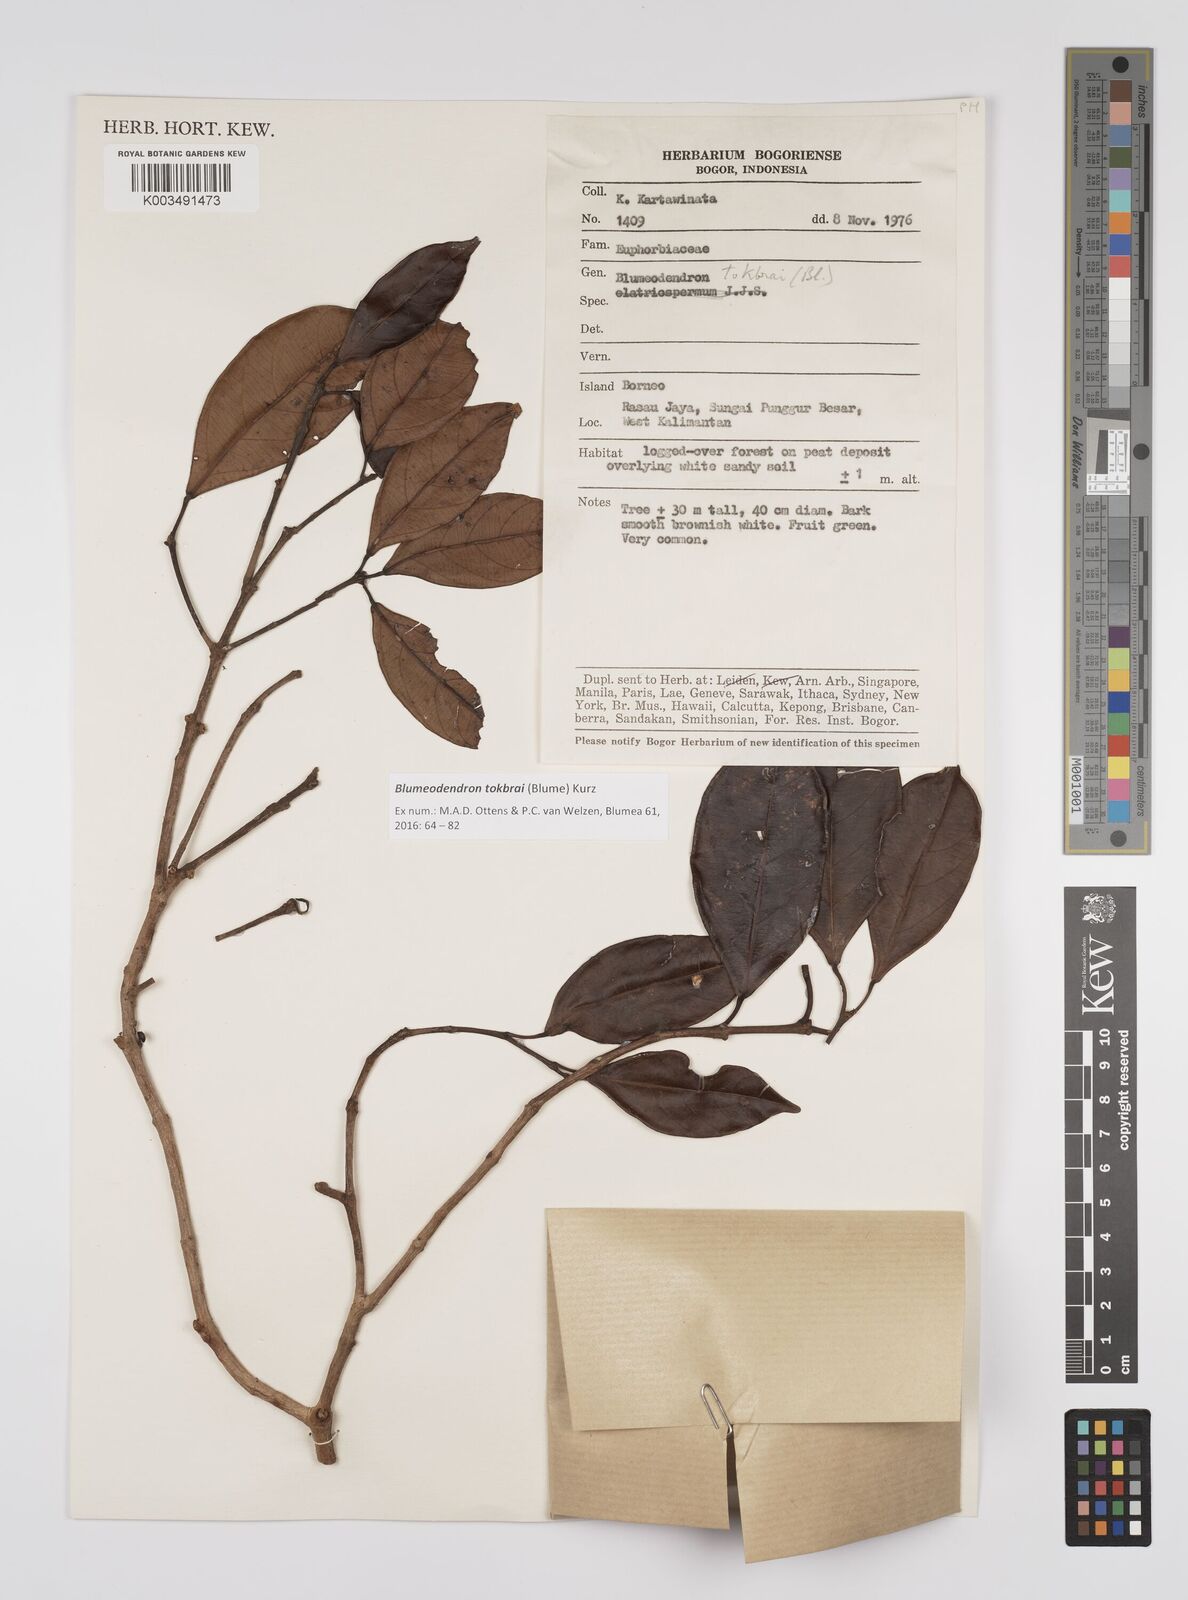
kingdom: Plantae
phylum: Tracheophyta
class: Magnoliopsida
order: Malpighiales
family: Euphorbiaceae
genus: Blumeodendron
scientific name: Blumeodendron tokbrai
